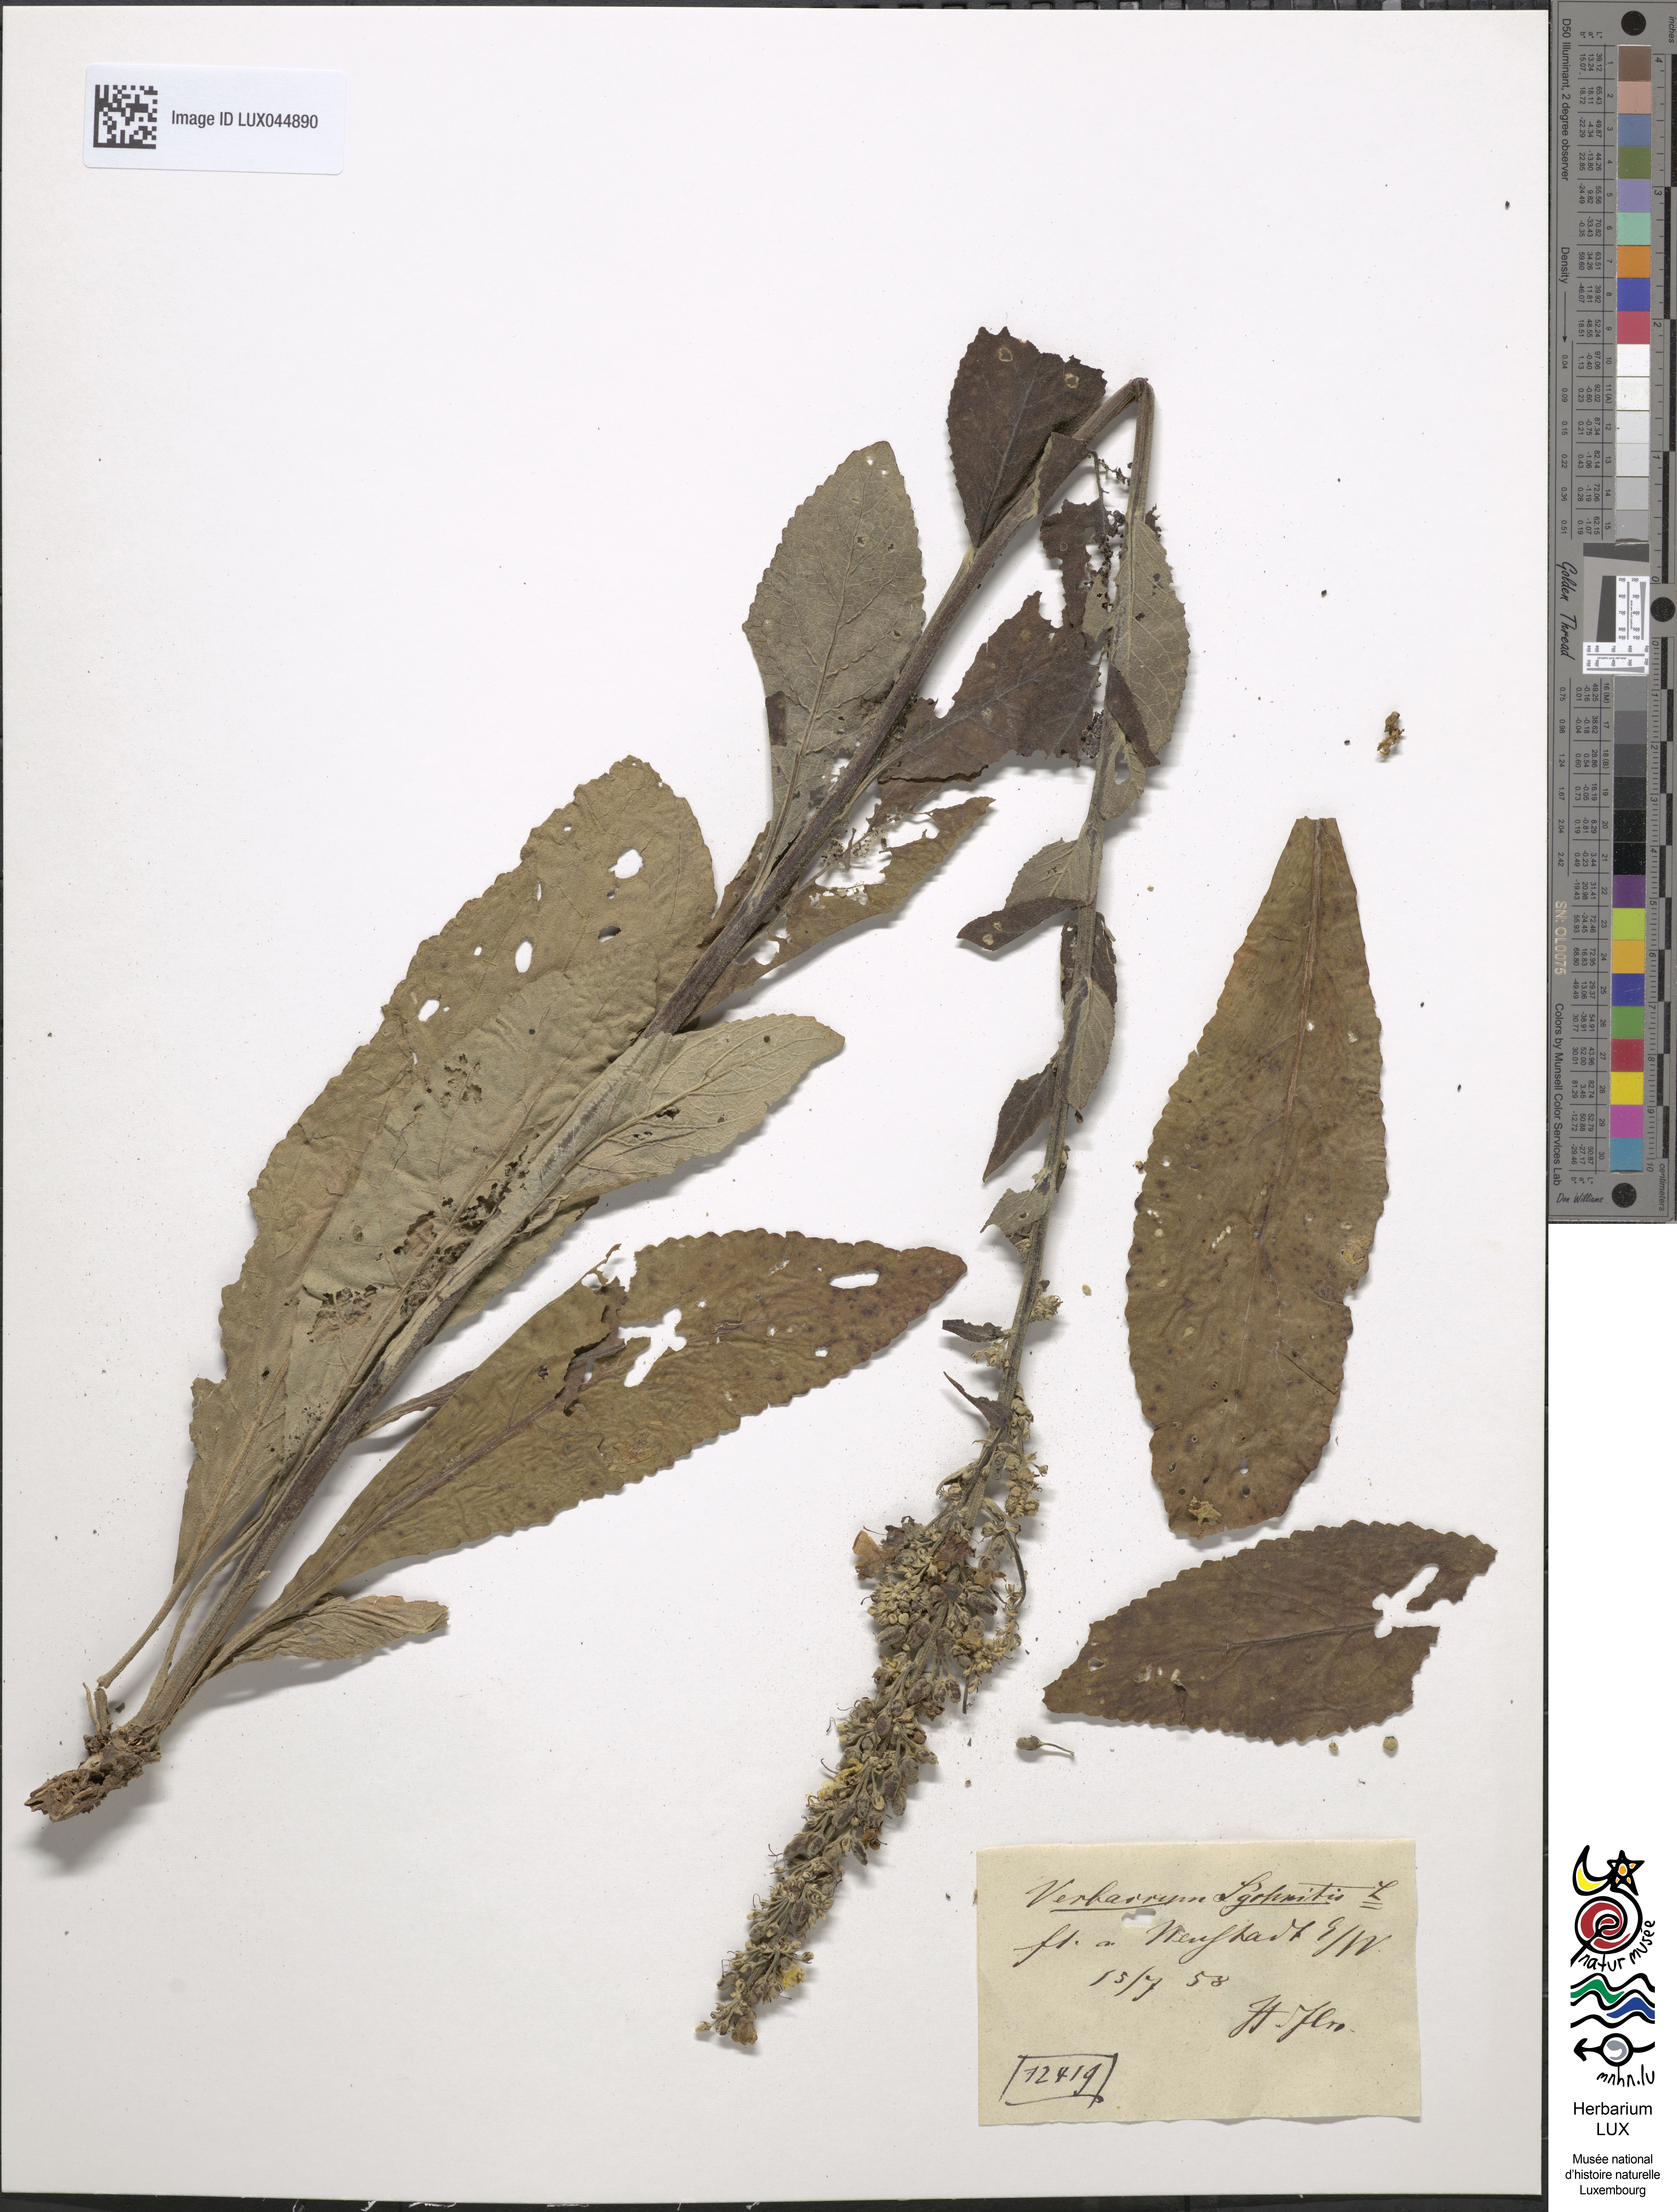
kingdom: Plantae
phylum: Tracheophyta
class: Magnoliopsida
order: Lamiales
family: Scrophulariaceae
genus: Verbascum
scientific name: Verbascum lychnitis
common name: White mullein
